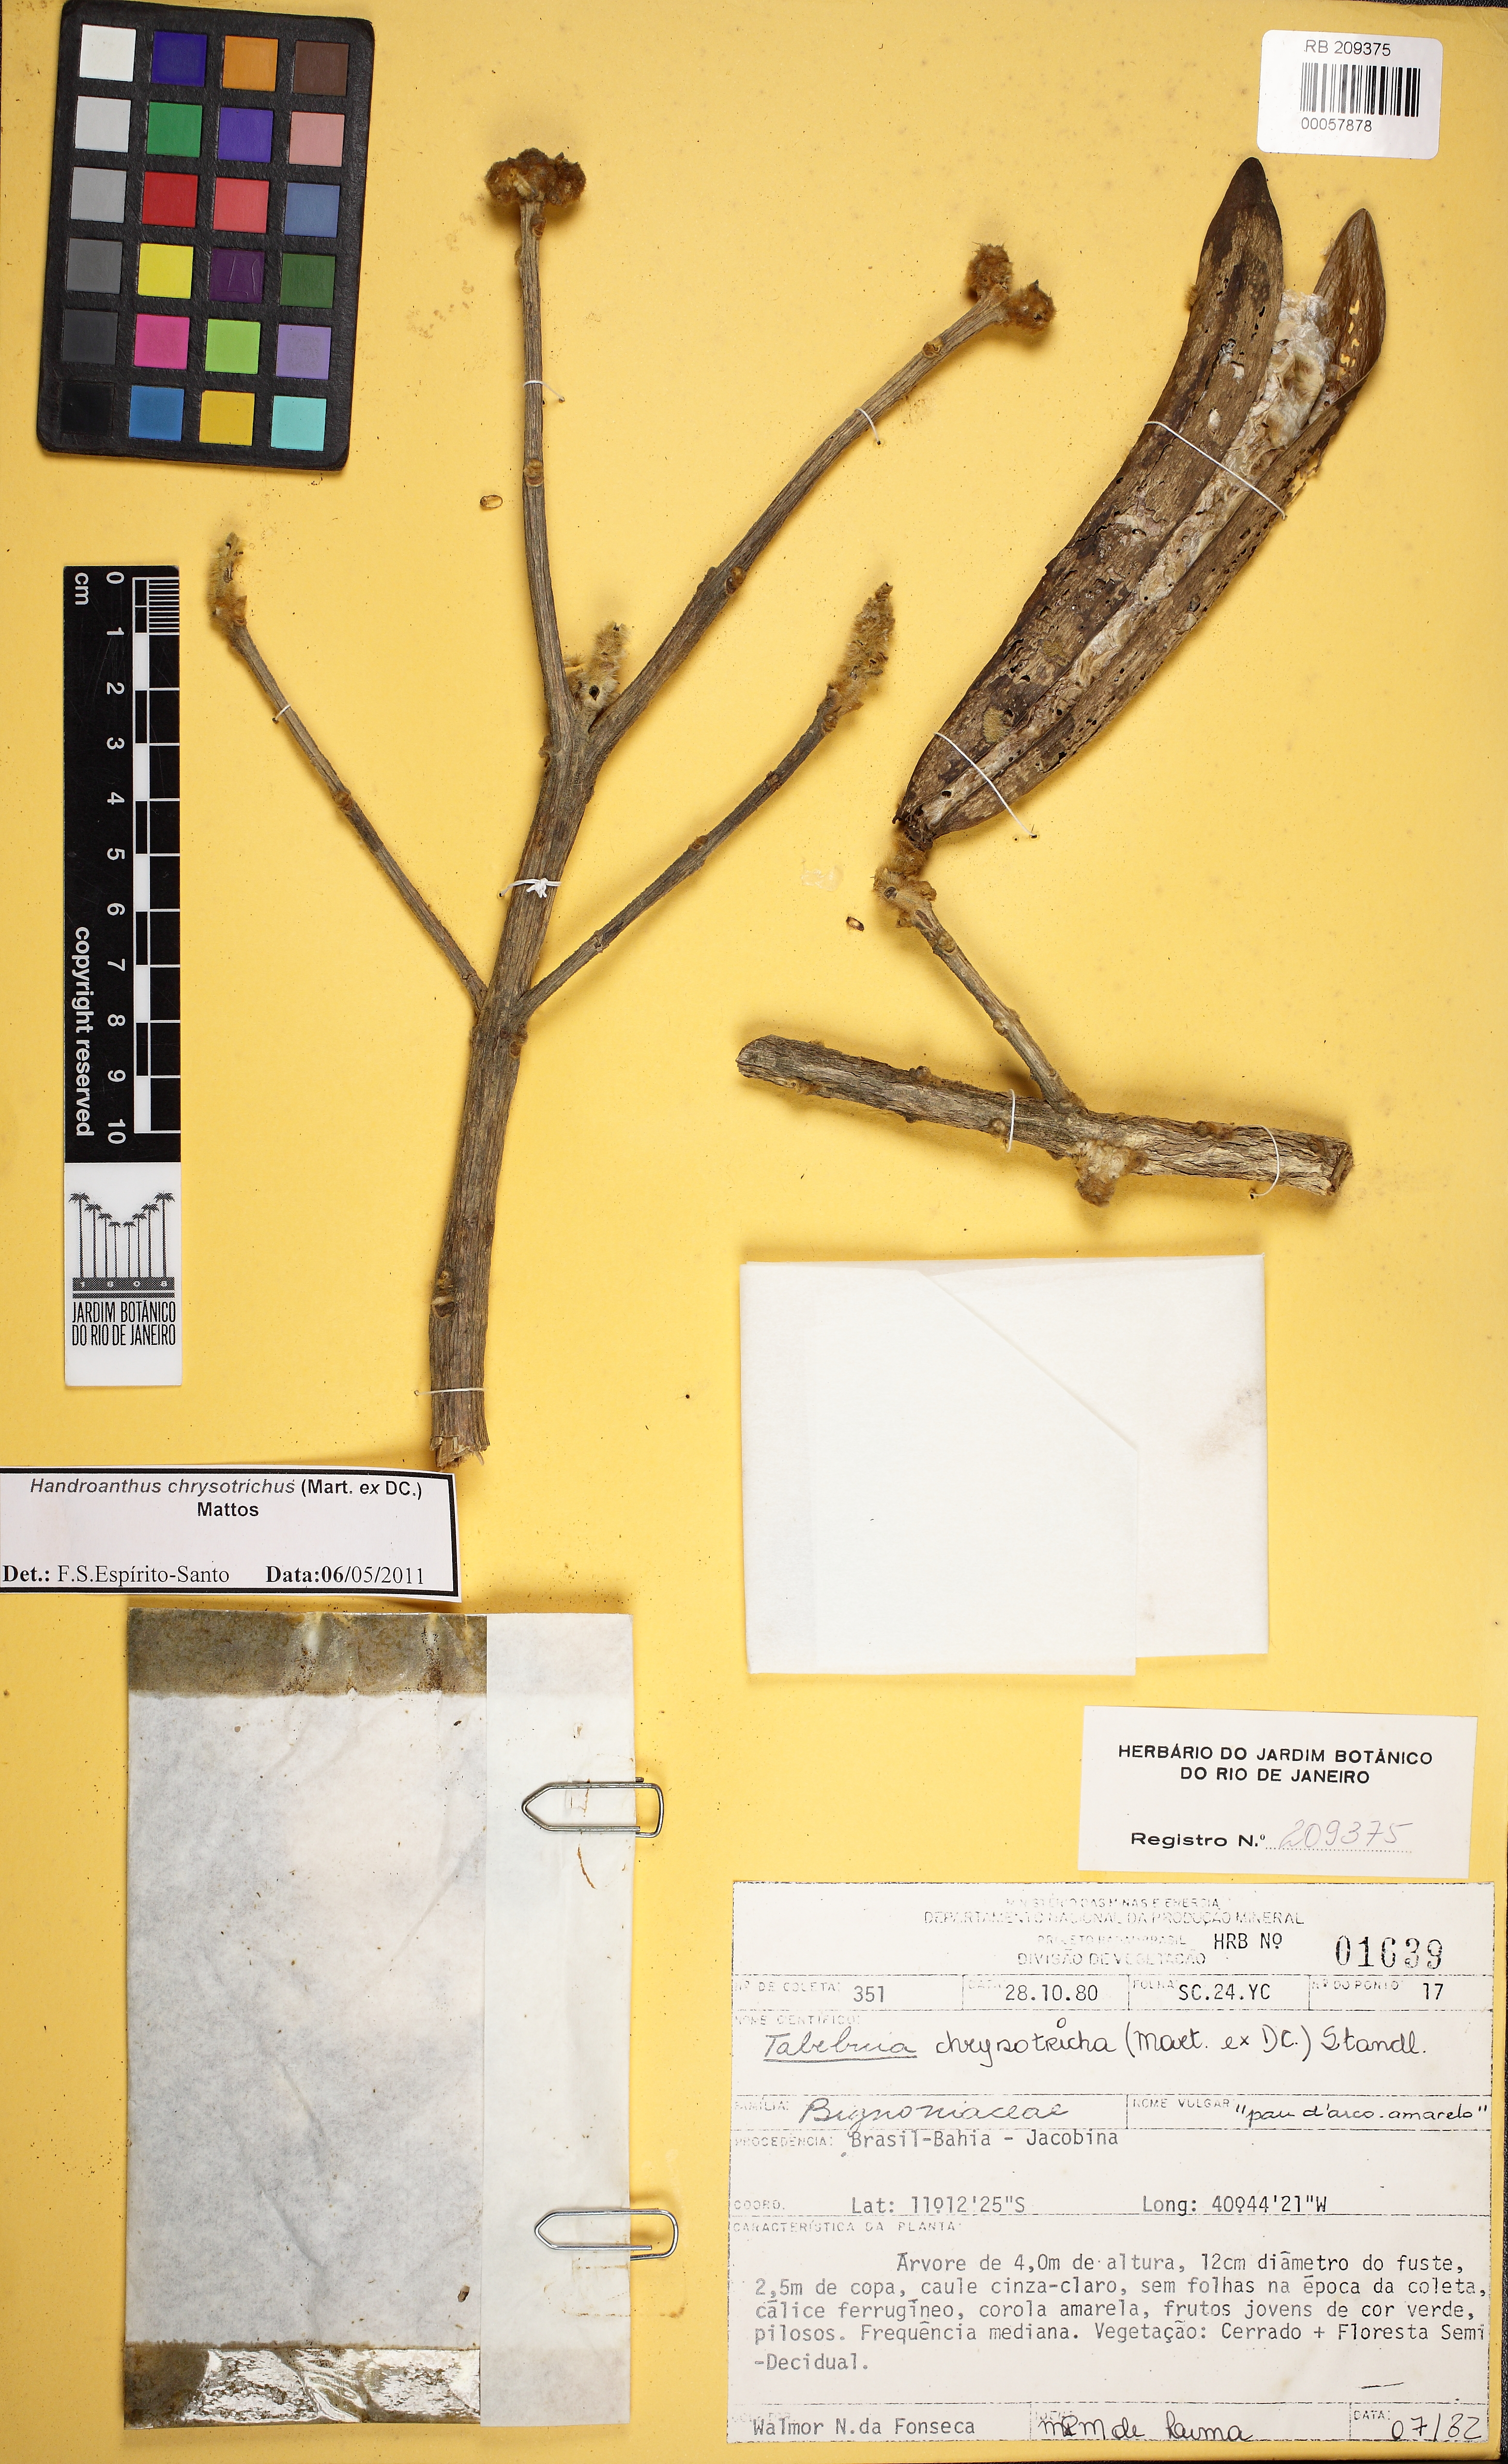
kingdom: Plantae
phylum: Tracheophyta
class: Magnoliopsida
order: Lamiales
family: Bignoniaceae
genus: Handroanthus
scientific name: Handroanthus chrysotrichus
